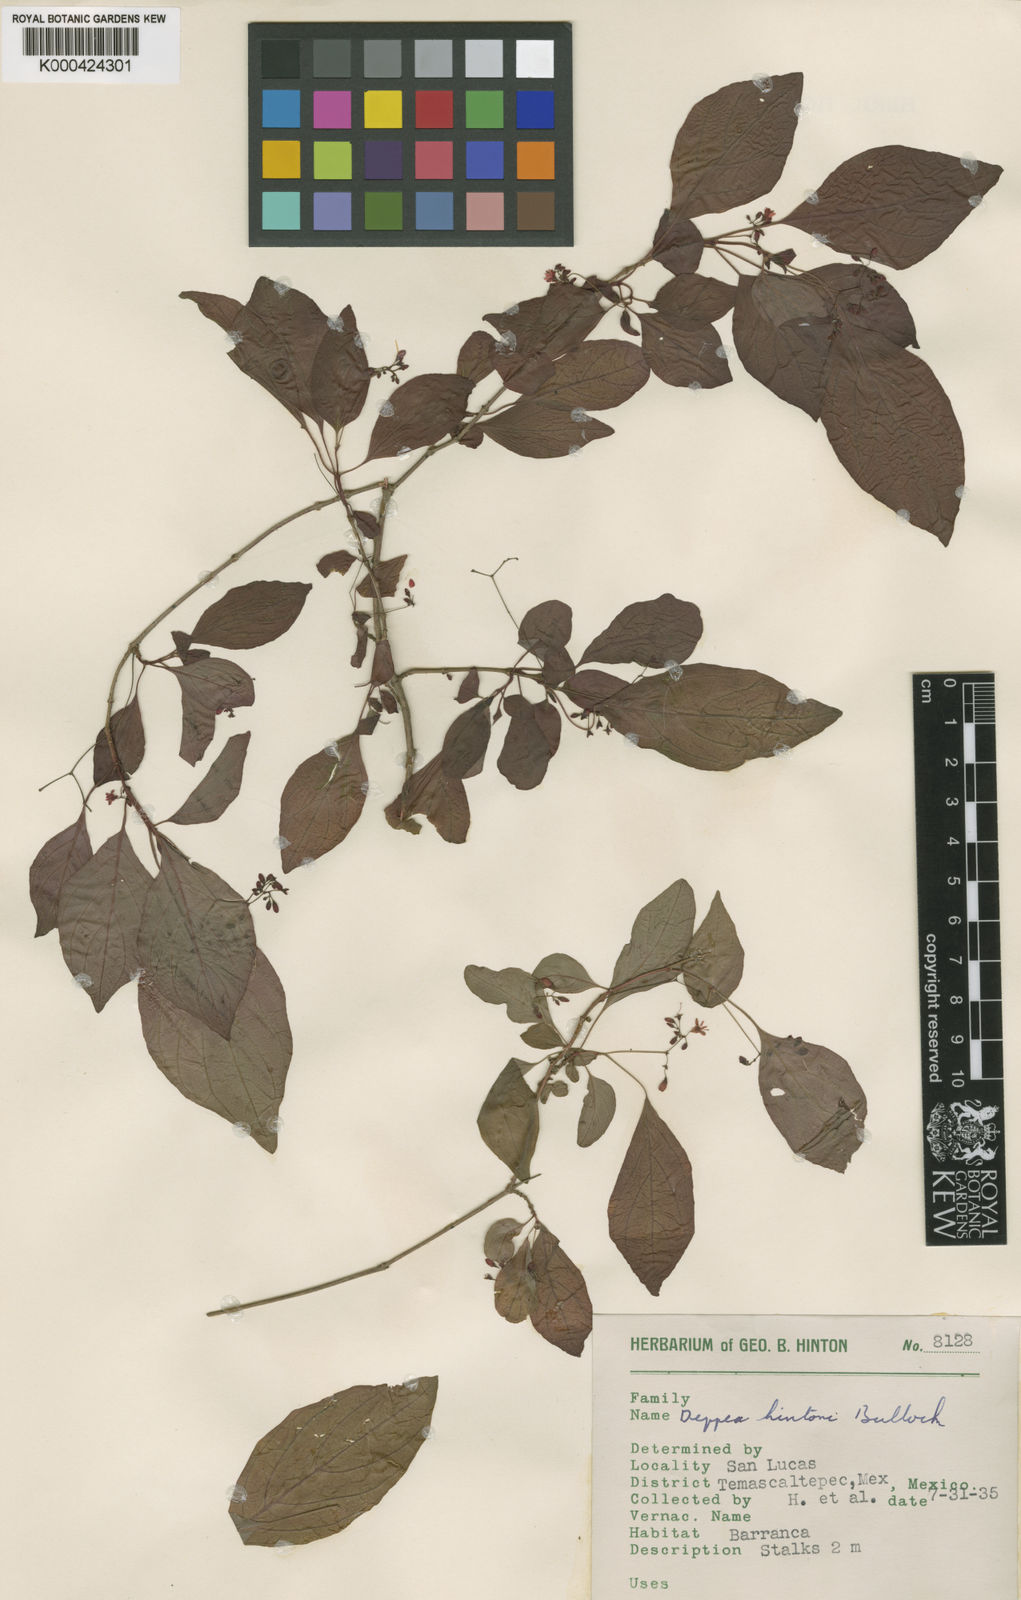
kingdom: Plantae
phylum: Tracheophyta
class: Magnoliopsida
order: Gentianales
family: Rubiaceae
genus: Deppea
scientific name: Deppea hintonii
